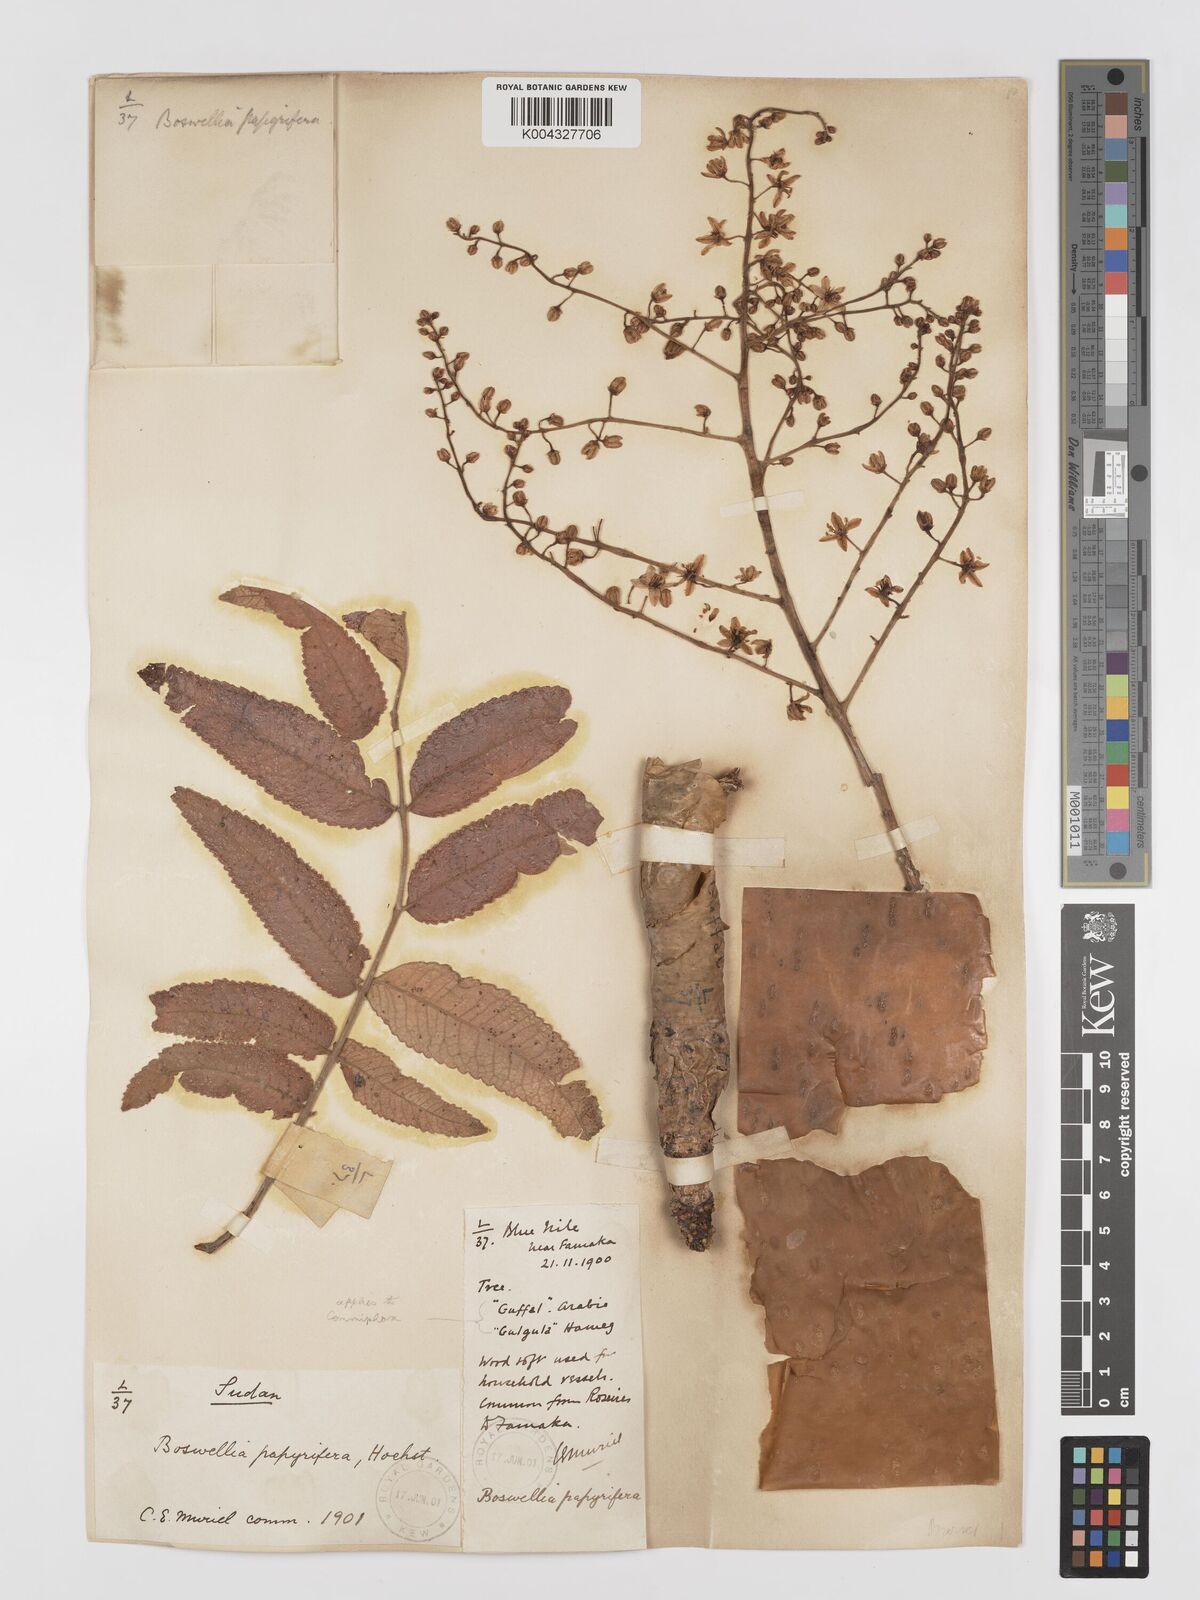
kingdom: Plantae
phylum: Tracheophyta
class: Magnoliopsida
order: Sapindales
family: Burseraceae
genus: Boswellia
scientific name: Boswellia papyrifera
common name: Sudanese frankincense
